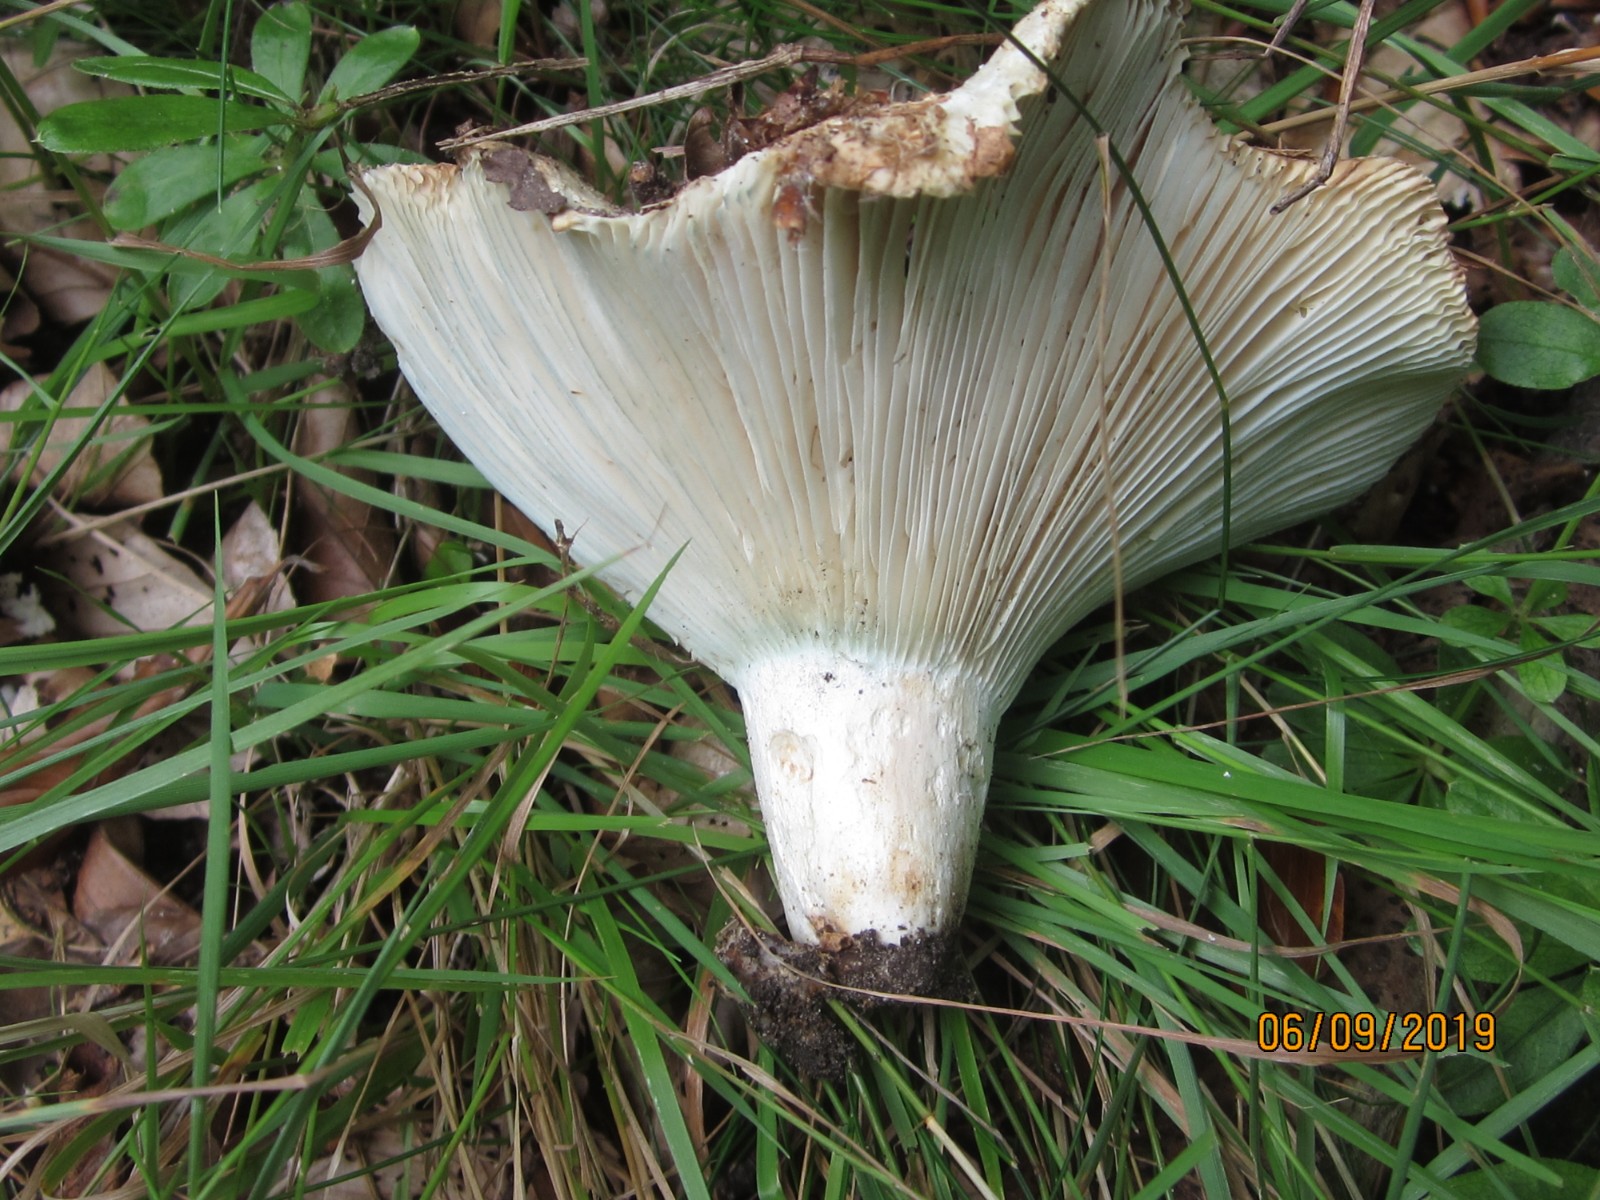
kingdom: Fungi
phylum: Basidiomycota
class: Agaricomycetes
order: Russulales
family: Russulaceae
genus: Russula
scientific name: Russula chloroides
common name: grønhalset tragt-skørhat
